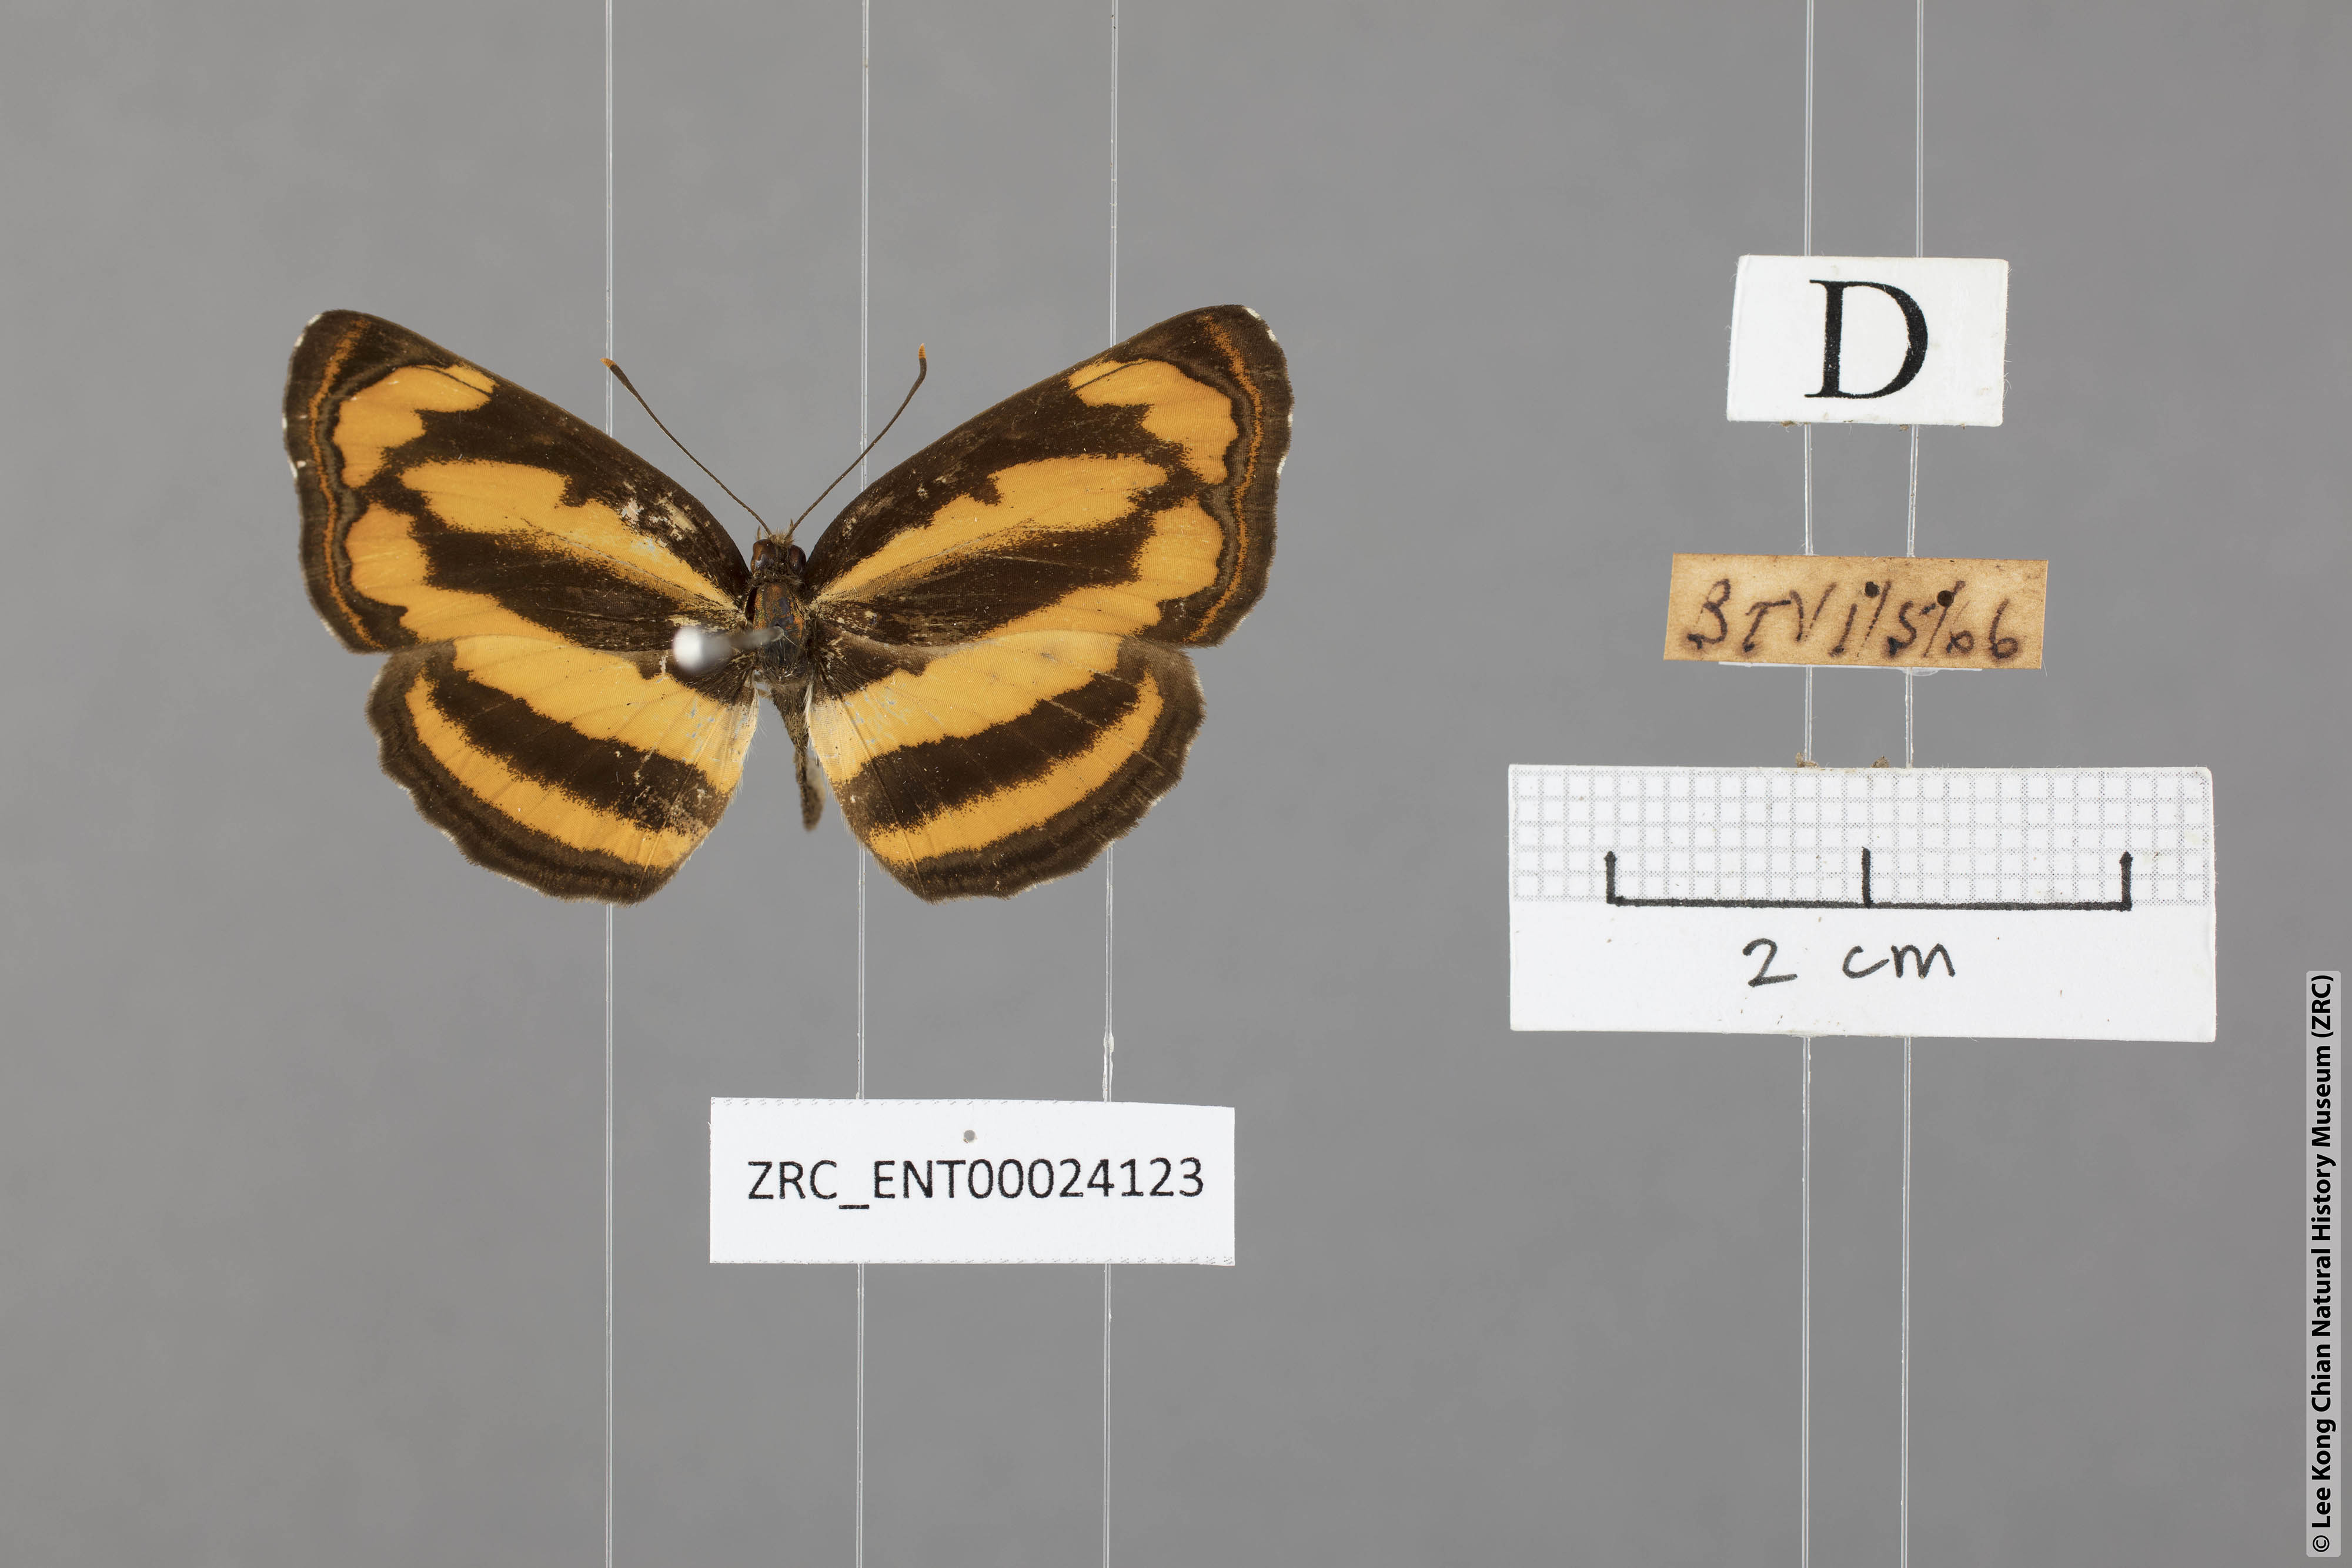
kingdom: Animalia
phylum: Arthropoda
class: Insecta
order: Lepidoptera
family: Nymphalidae
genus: Pantoporia
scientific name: Pantoporia hordonia
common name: Common lascar
